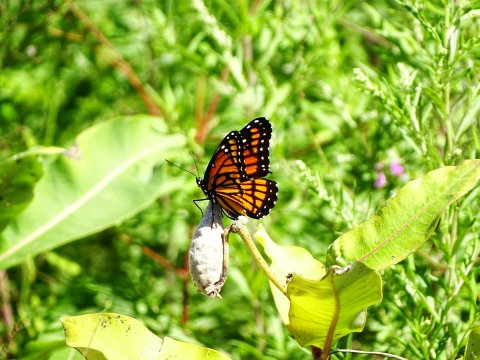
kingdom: Animalia
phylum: Arthropoda
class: Insecta
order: Lepidoptera
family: Nymphalidae
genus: Limenitis
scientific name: Limenitis archippus
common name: Viceroy
